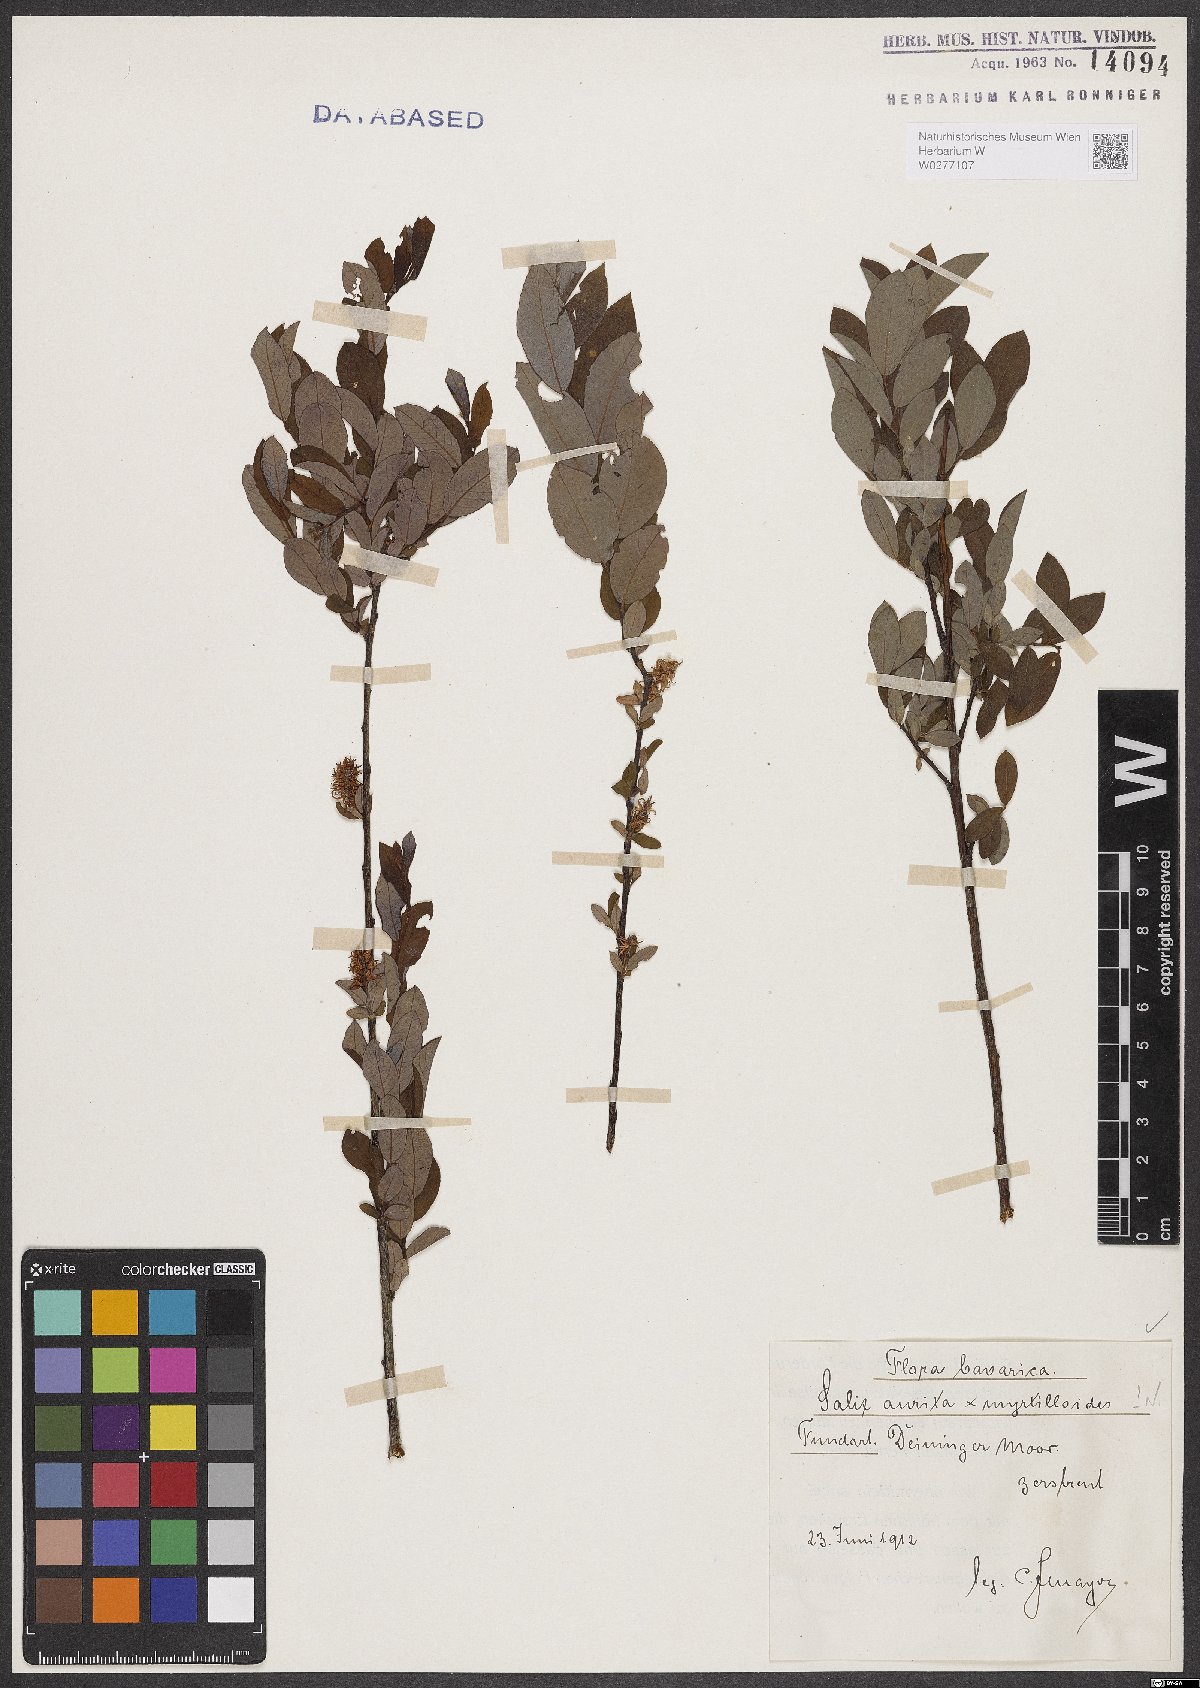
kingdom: Plantae
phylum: Tracheophyta
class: Magnoliopsida
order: Malpighiales
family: Salicaceae
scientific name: Salicaceae
